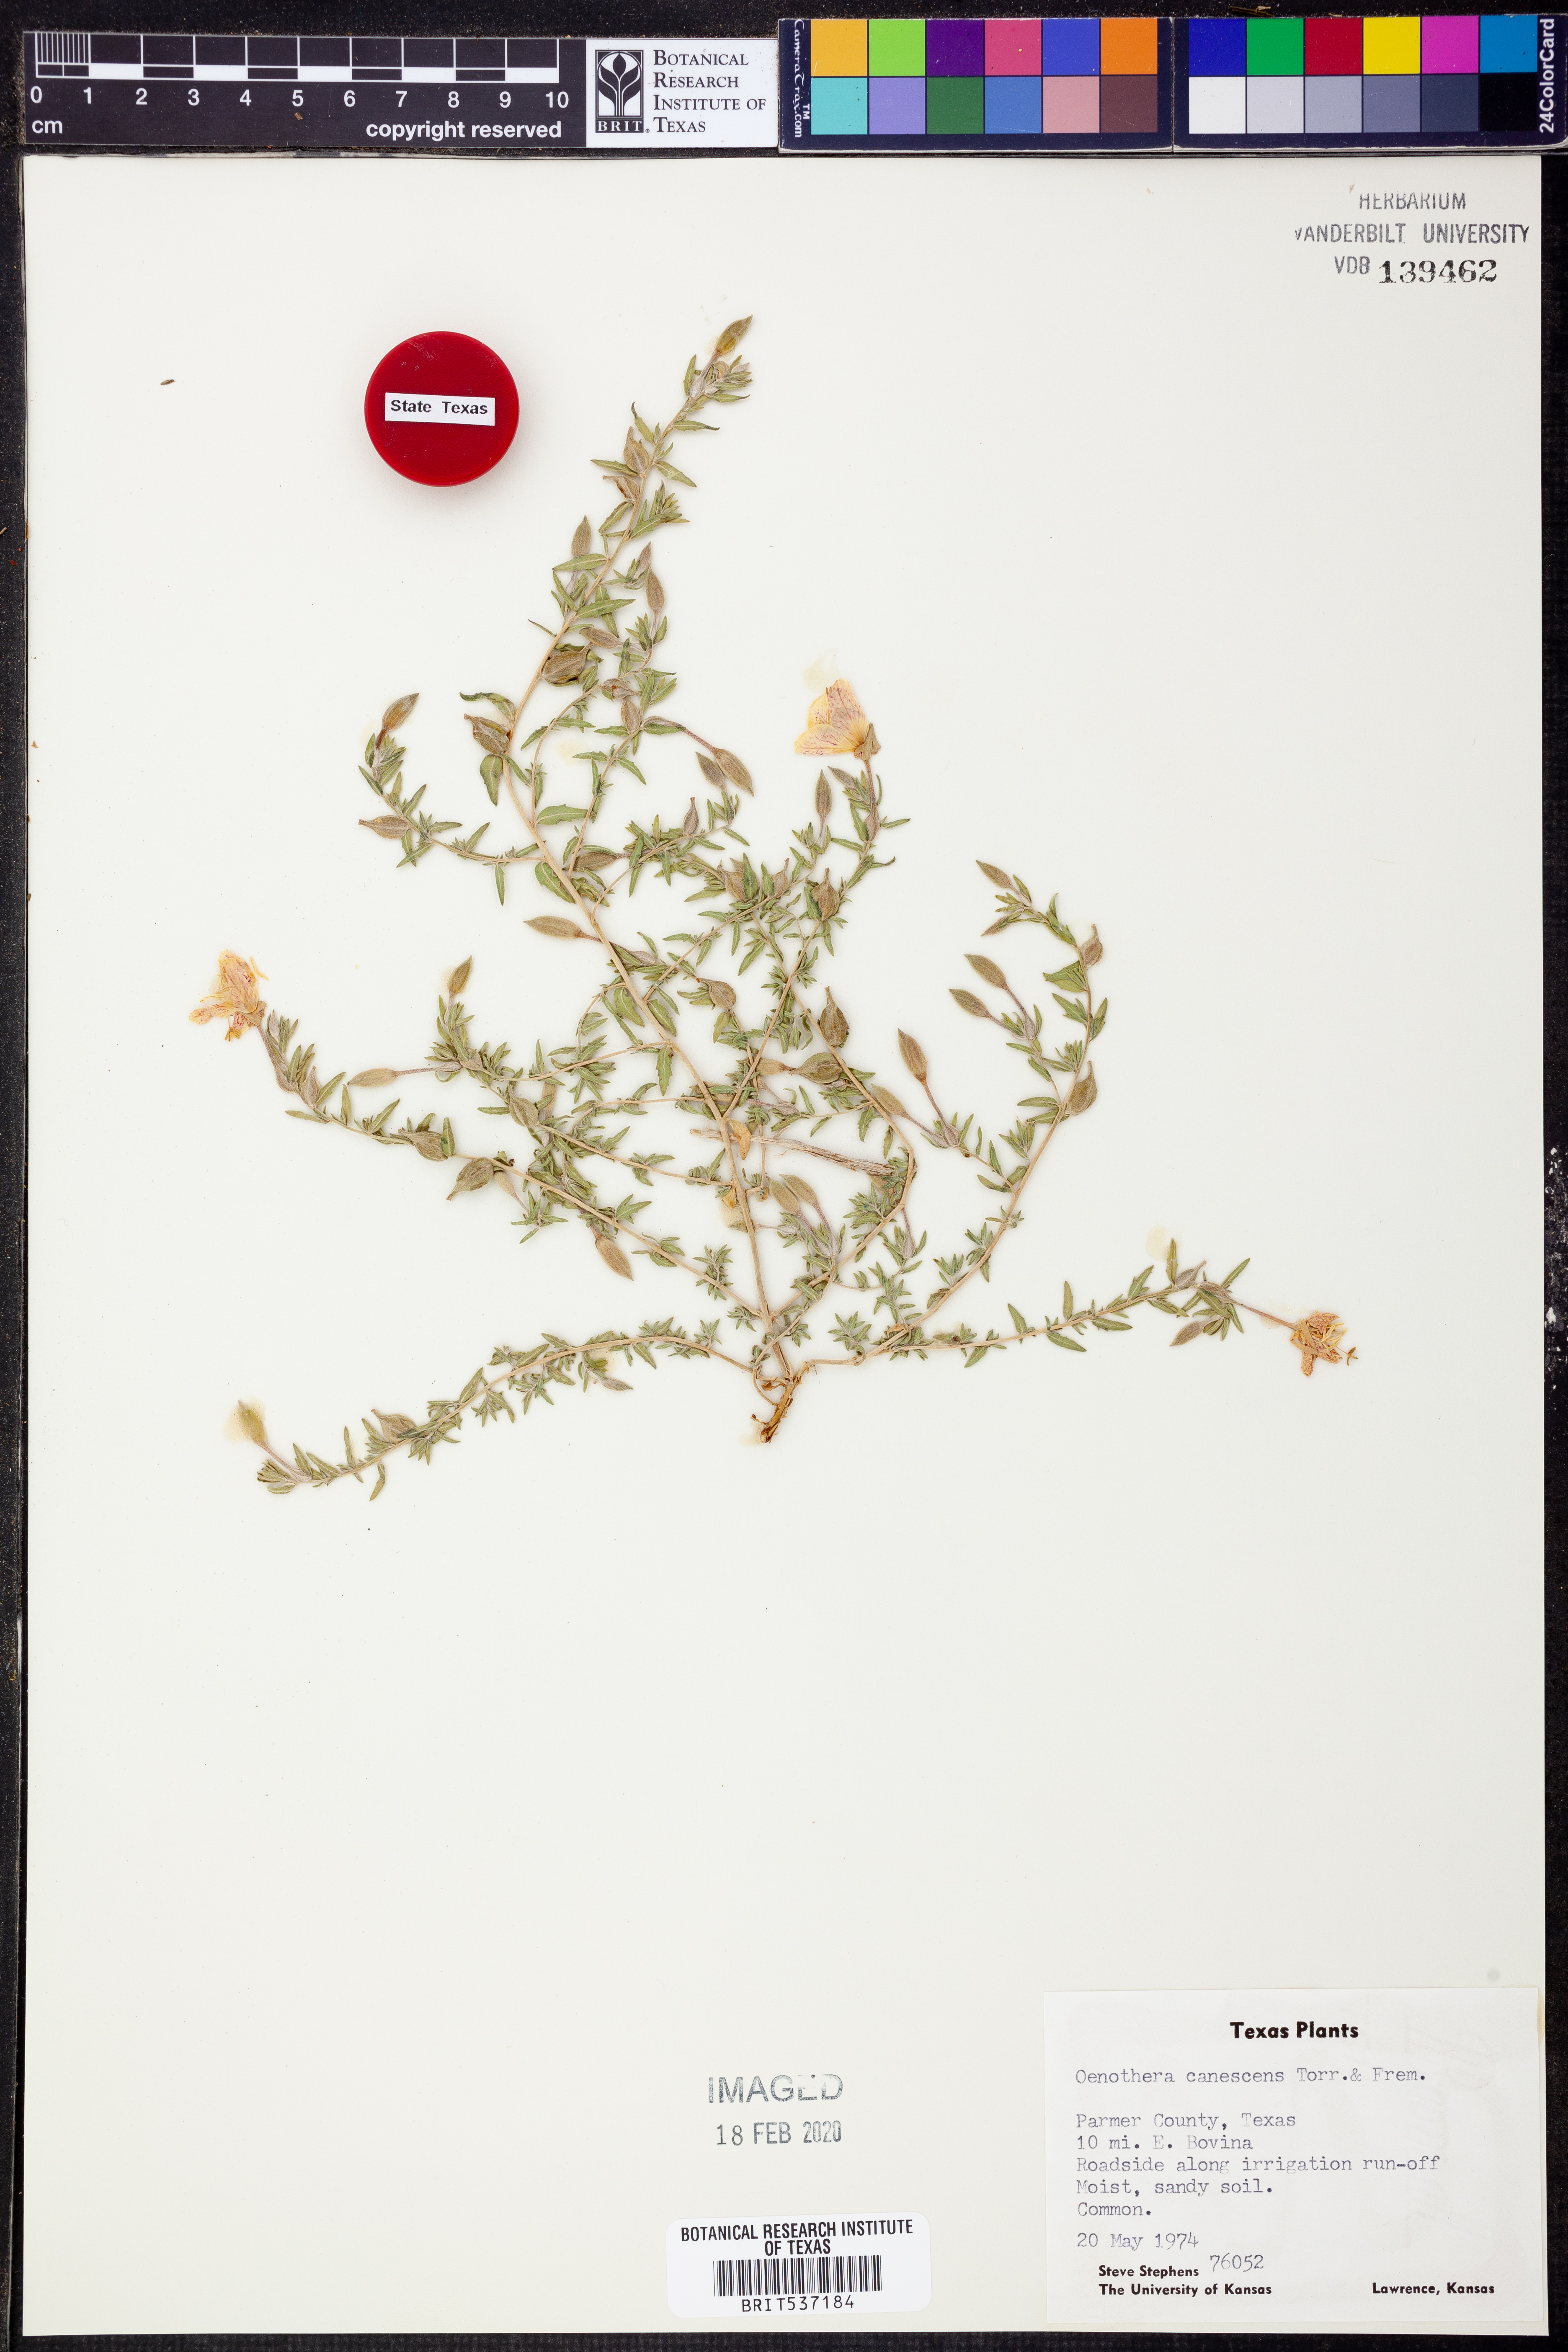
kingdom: Plantae
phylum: Tracheophyta
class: Magnoliopsida
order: Myrtales
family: Onagraceae
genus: Oenothera
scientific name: Oenothera canescens
